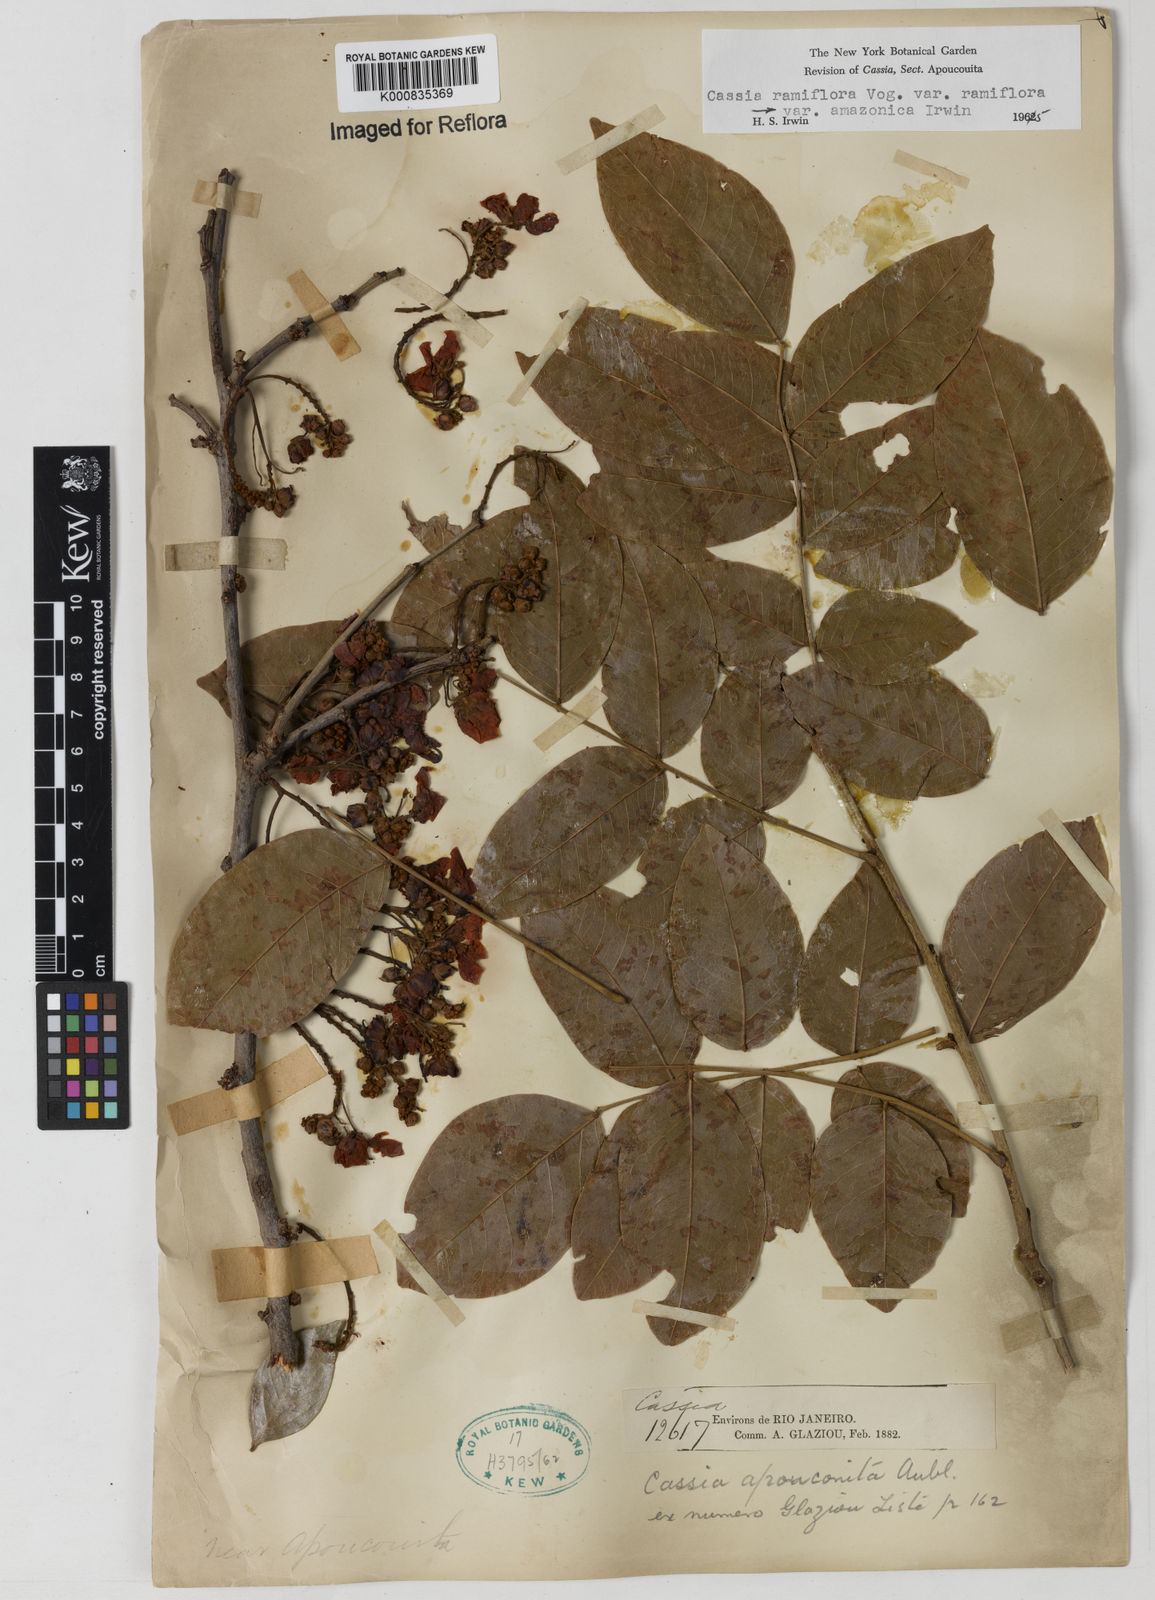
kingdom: Plantae
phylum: Tracheophyta
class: Magnoliopsida
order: Fabales
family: Fabaceae
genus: Chamaecrista
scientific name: Chamaecrista ensiformis
